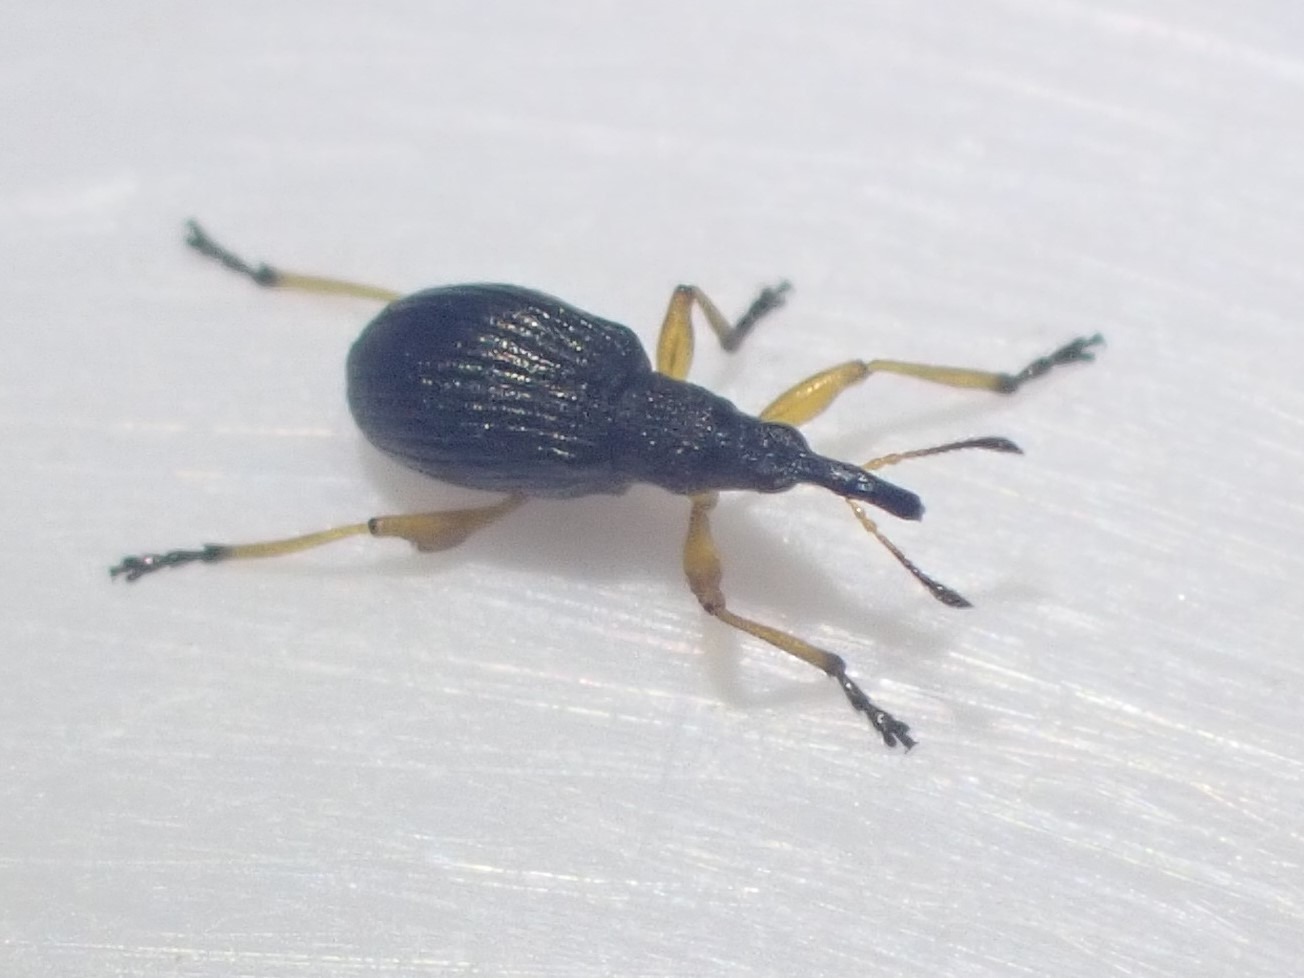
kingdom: Animalia
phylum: Arthropoda
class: Insecta
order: Coleoptera
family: Apionidae
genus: Protapion
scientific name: Protapion fulvipes
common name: Hvidkløversnudebille
